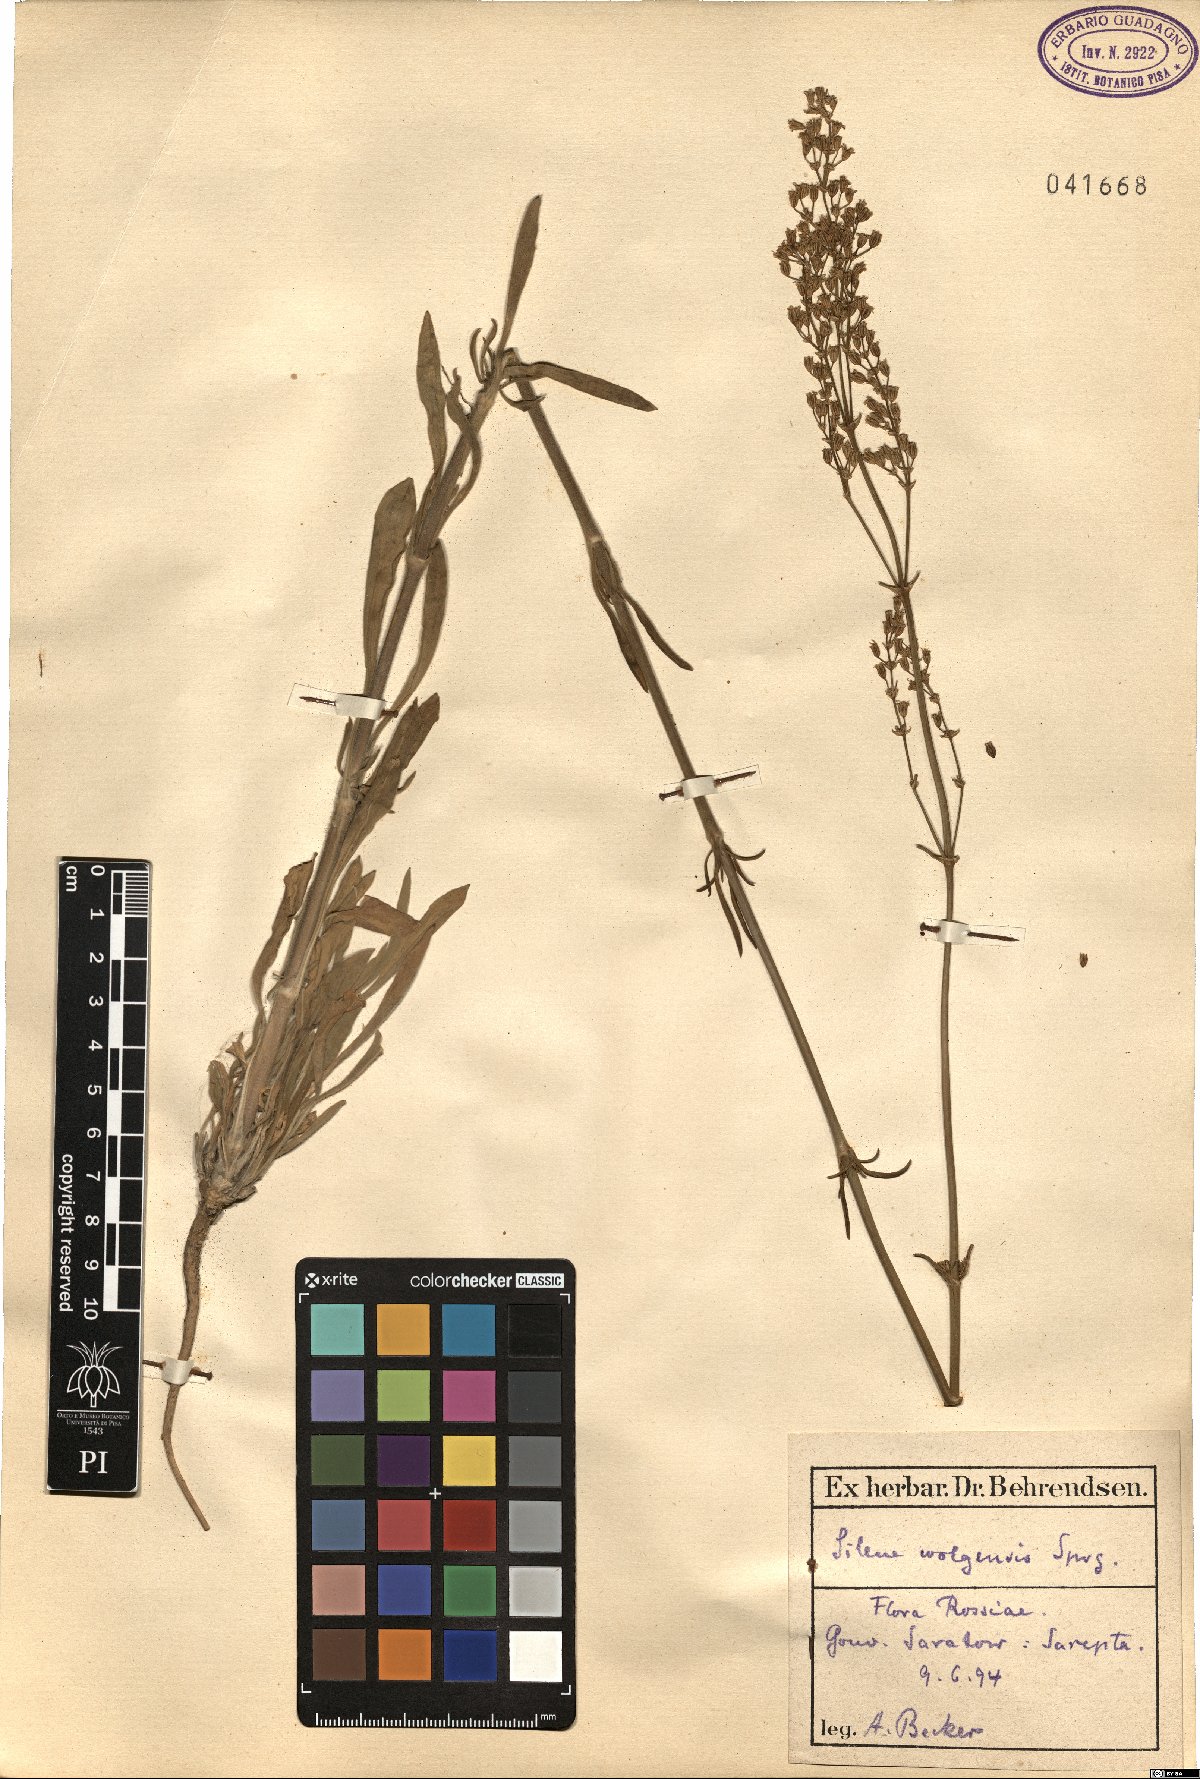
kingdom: Plantae
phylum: Tracheophyta
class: Magnoliopsida
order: Caryophyllales
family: Caryophyllaceae
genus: Silene
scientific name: Silene wolgensis
